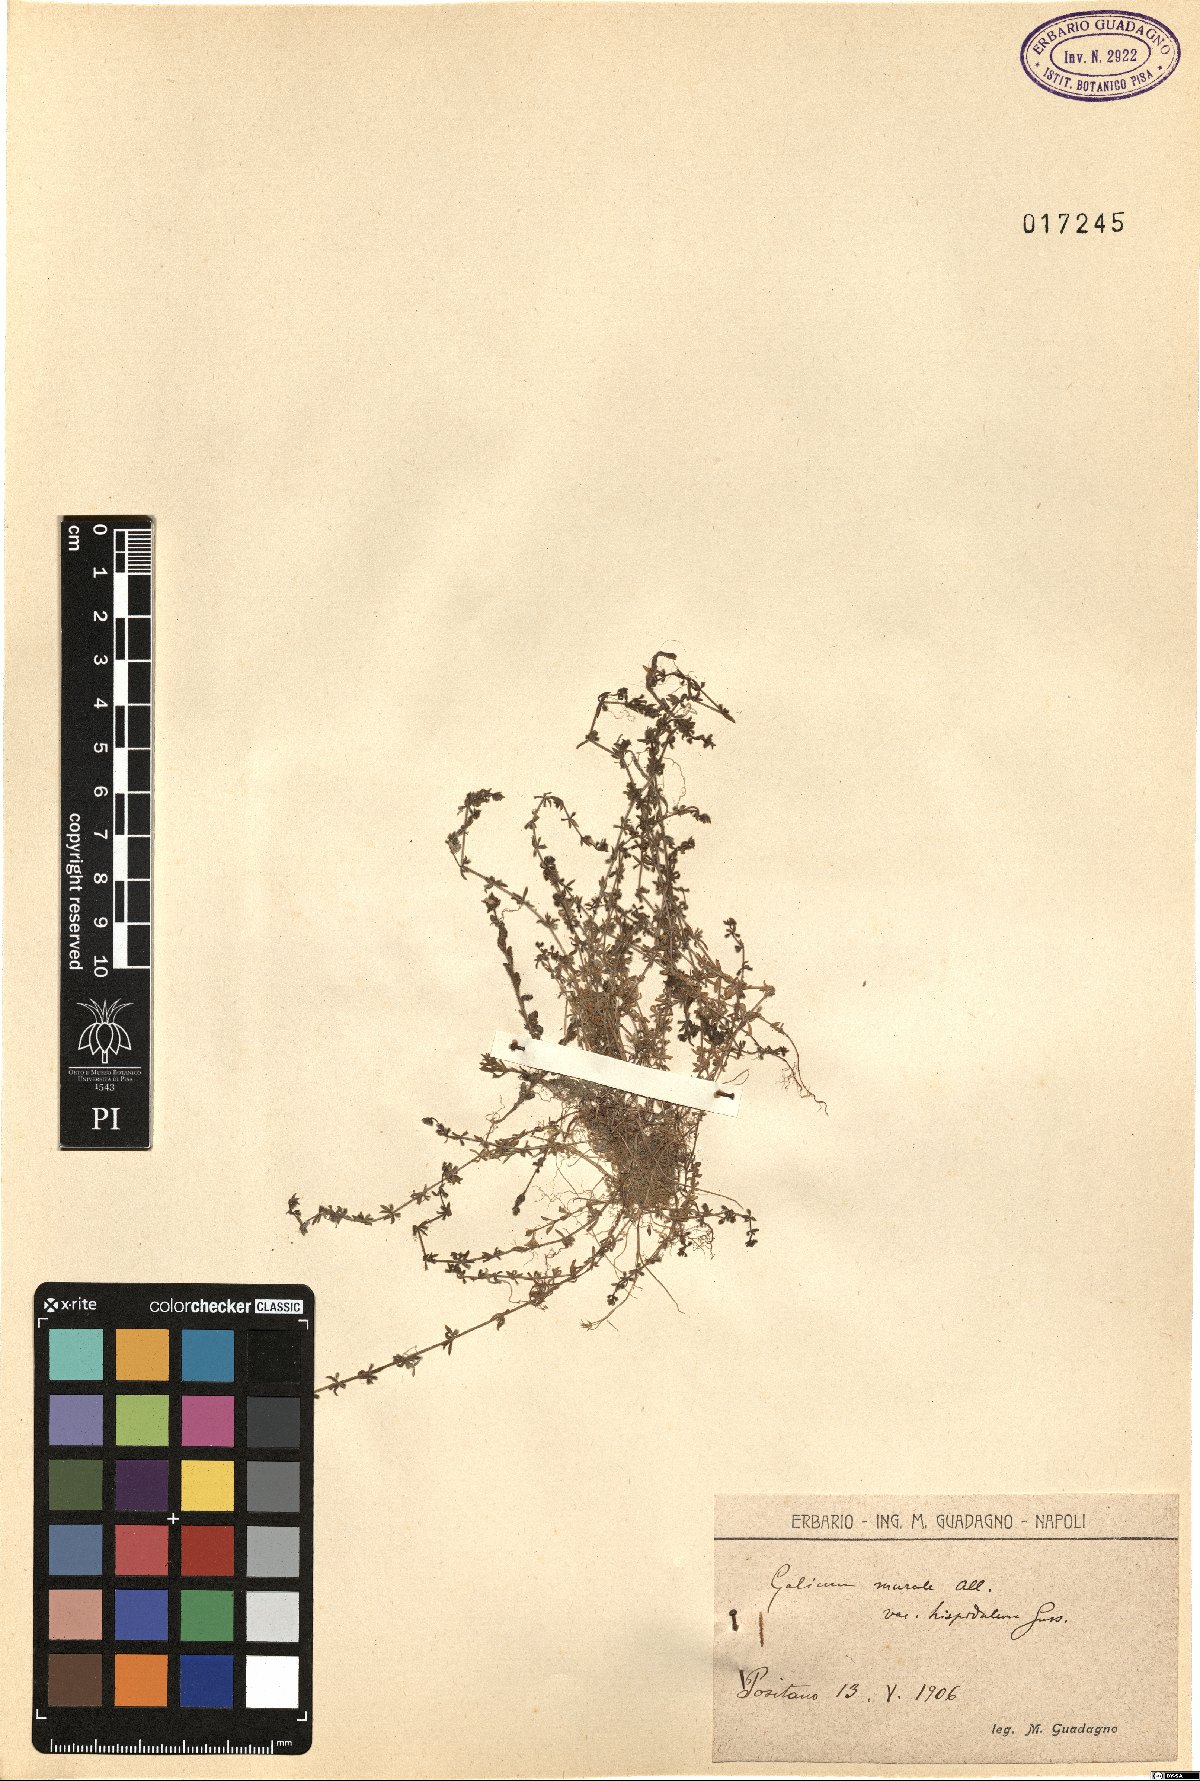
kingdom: Plantae
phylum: Tracheophyta
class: Magnoliopsida
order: Gentianales
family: Rubiaceae
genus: Galium
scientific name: Galium murale
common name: Yellow wall bedstraw
